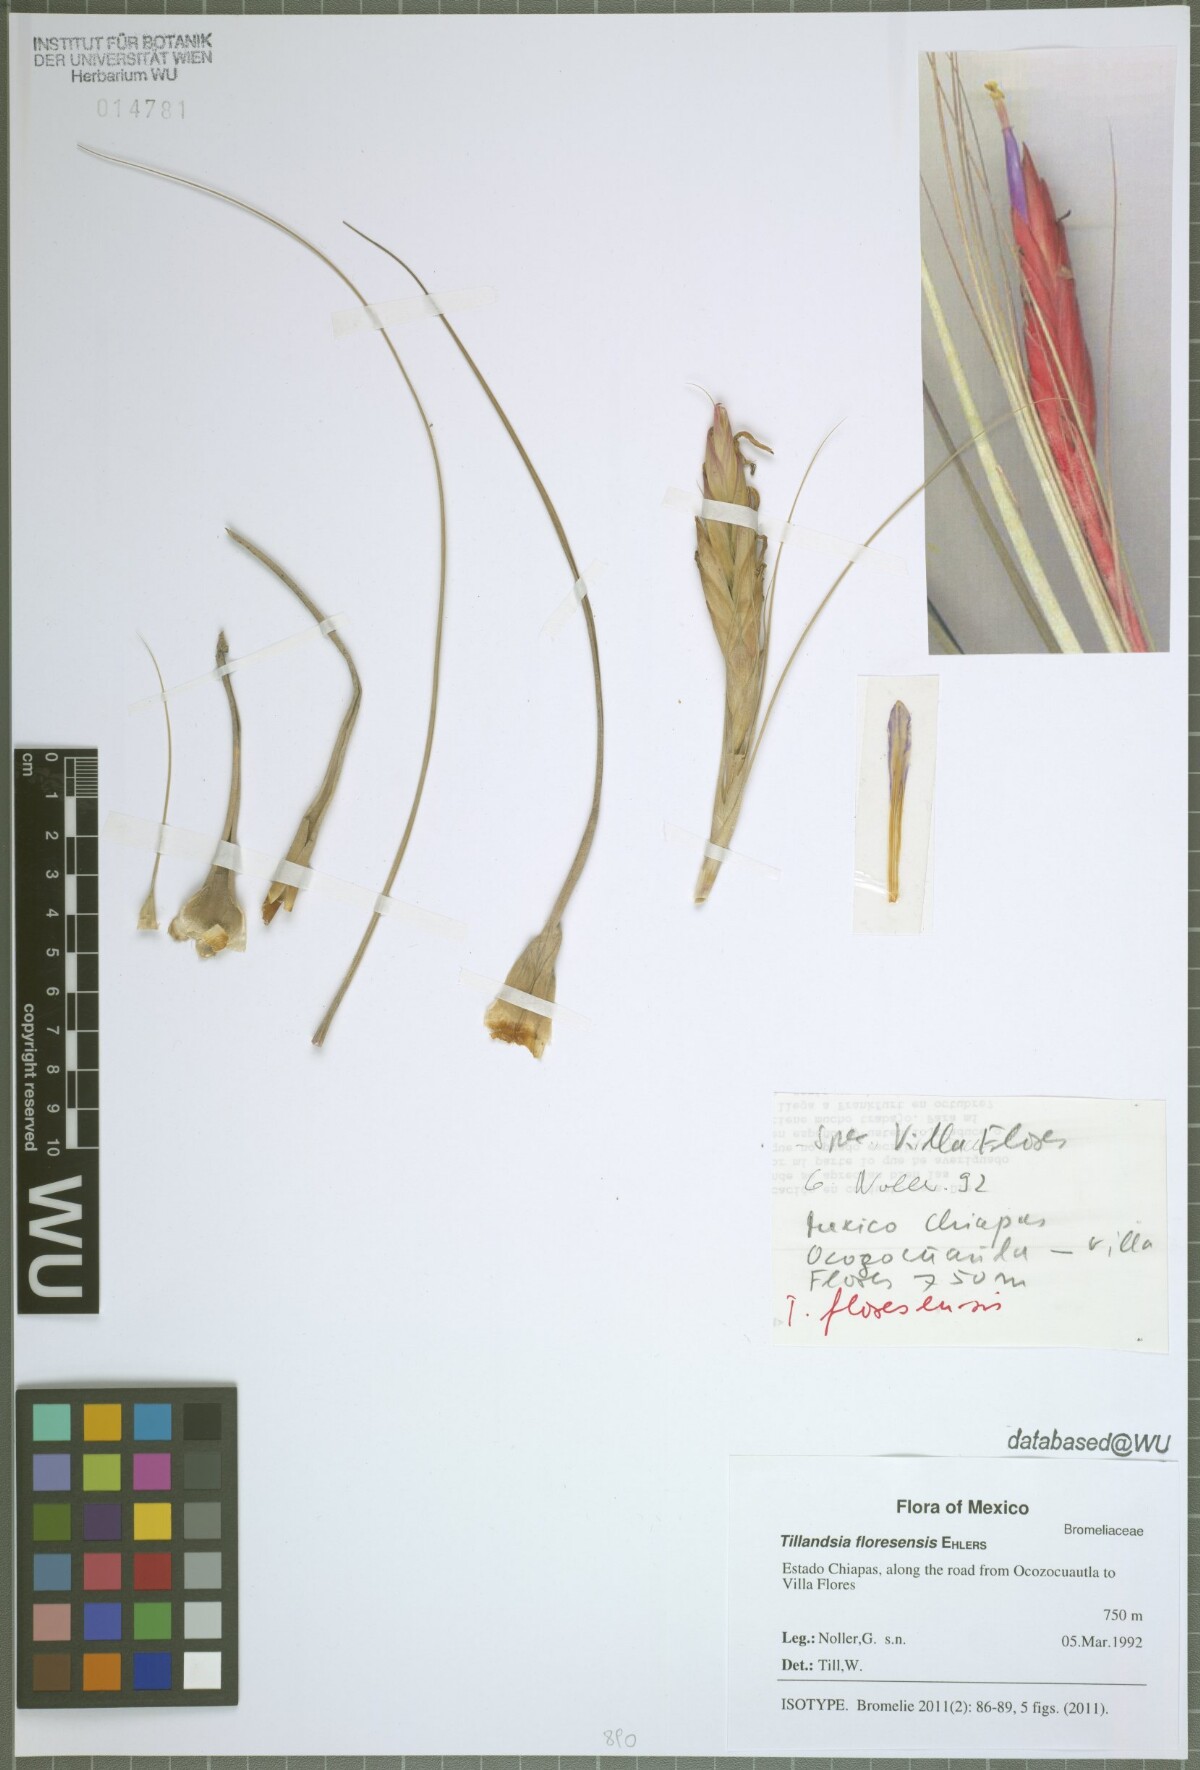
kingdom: Plantae
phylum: Tracheophyta
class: Liliopsida
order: Poales
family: Bromeliaceae
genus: Tillandsia
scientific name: Tillandsia floresensis
